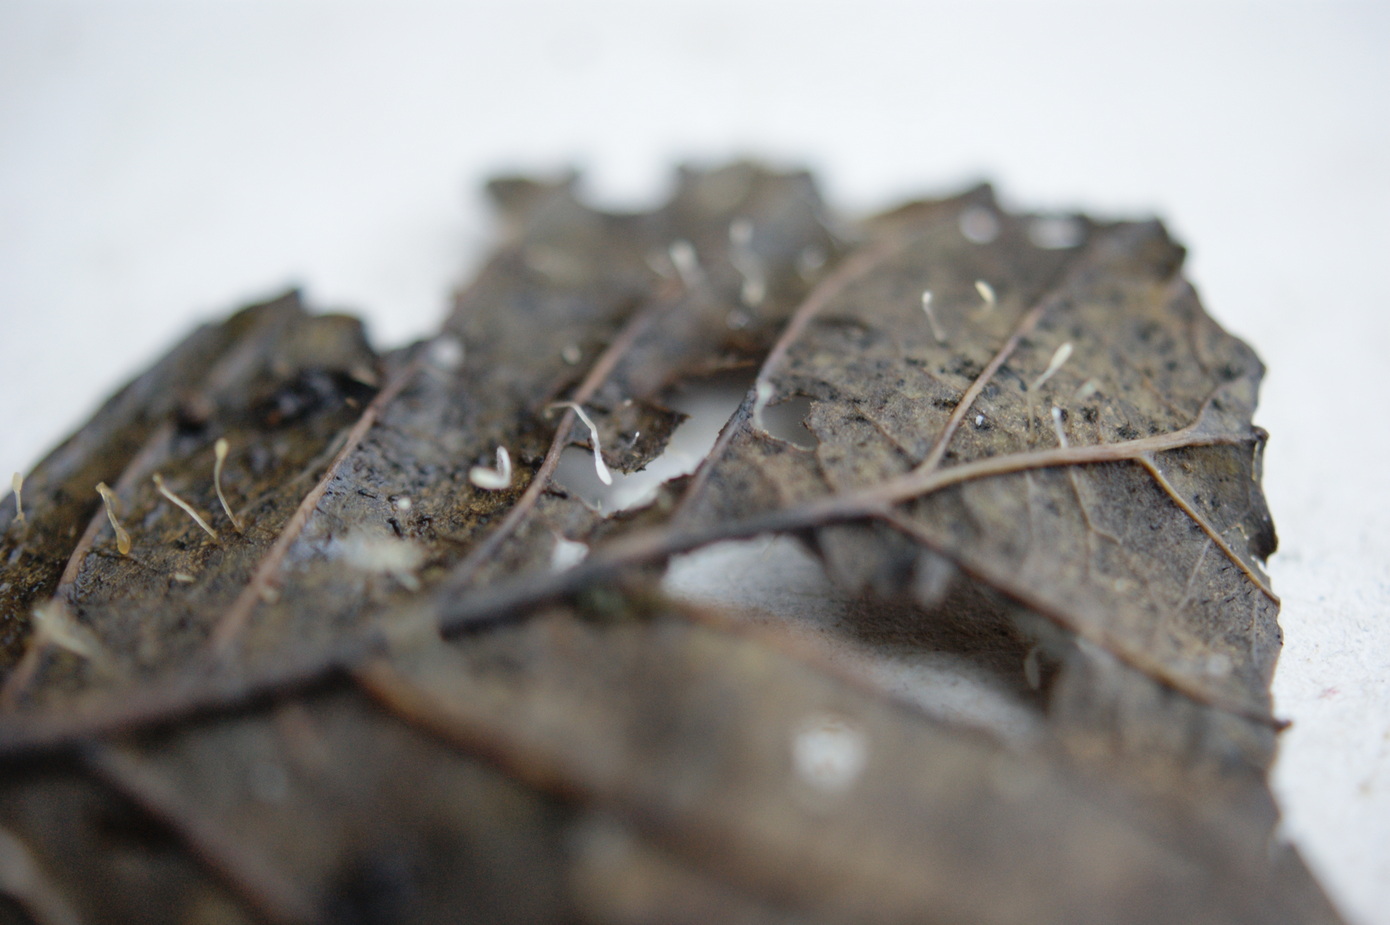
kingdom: Fungi
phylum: Basidiomycota
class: Agaricomycetes
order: Agaricales
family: Typhulaceae
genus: Typhula
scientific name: Typhula setipes
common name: liden trådkølle
